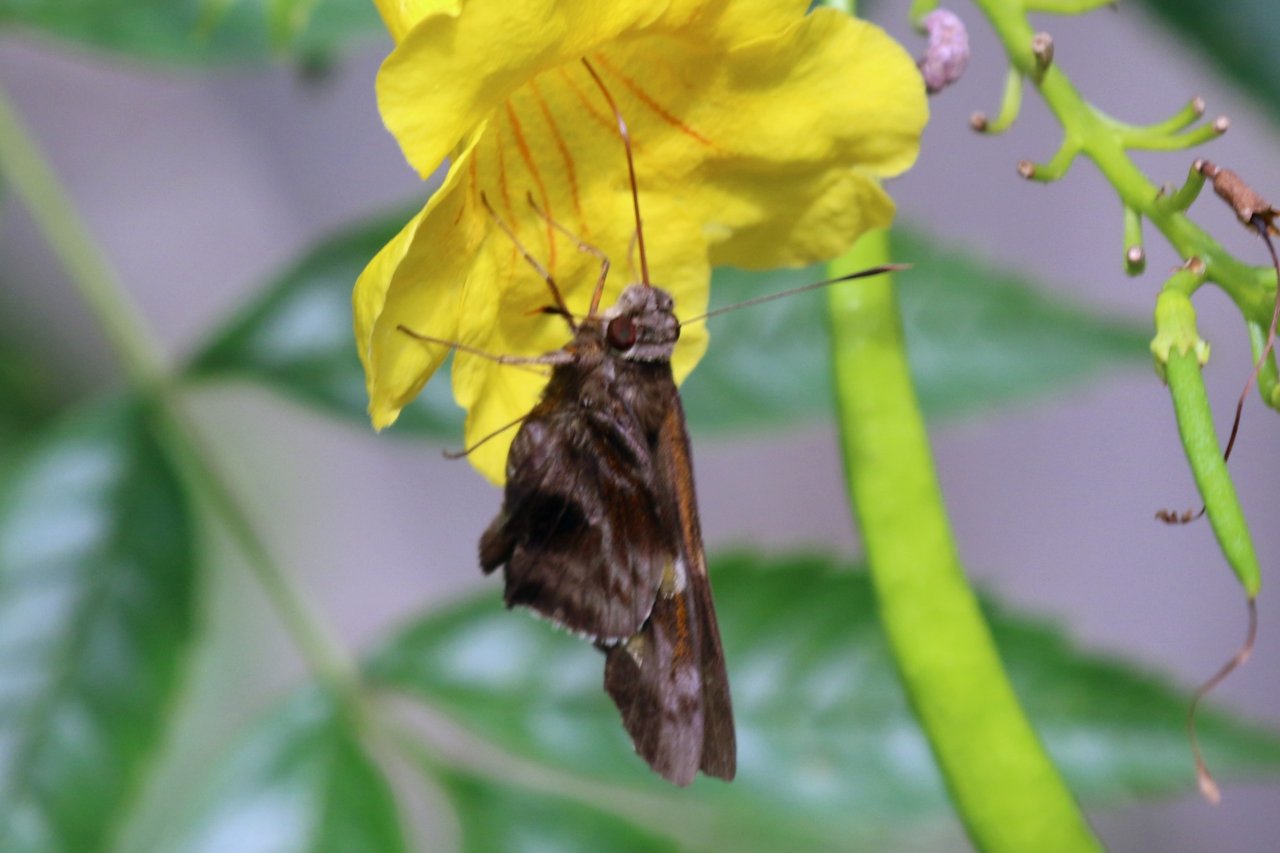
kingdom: Animalia
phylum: Arthropoda
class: Insecta
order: Lepidoptera
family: Hesperiidae
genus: Perichares
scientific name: Perichares philetes
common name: Green-backed Ruby-eye
